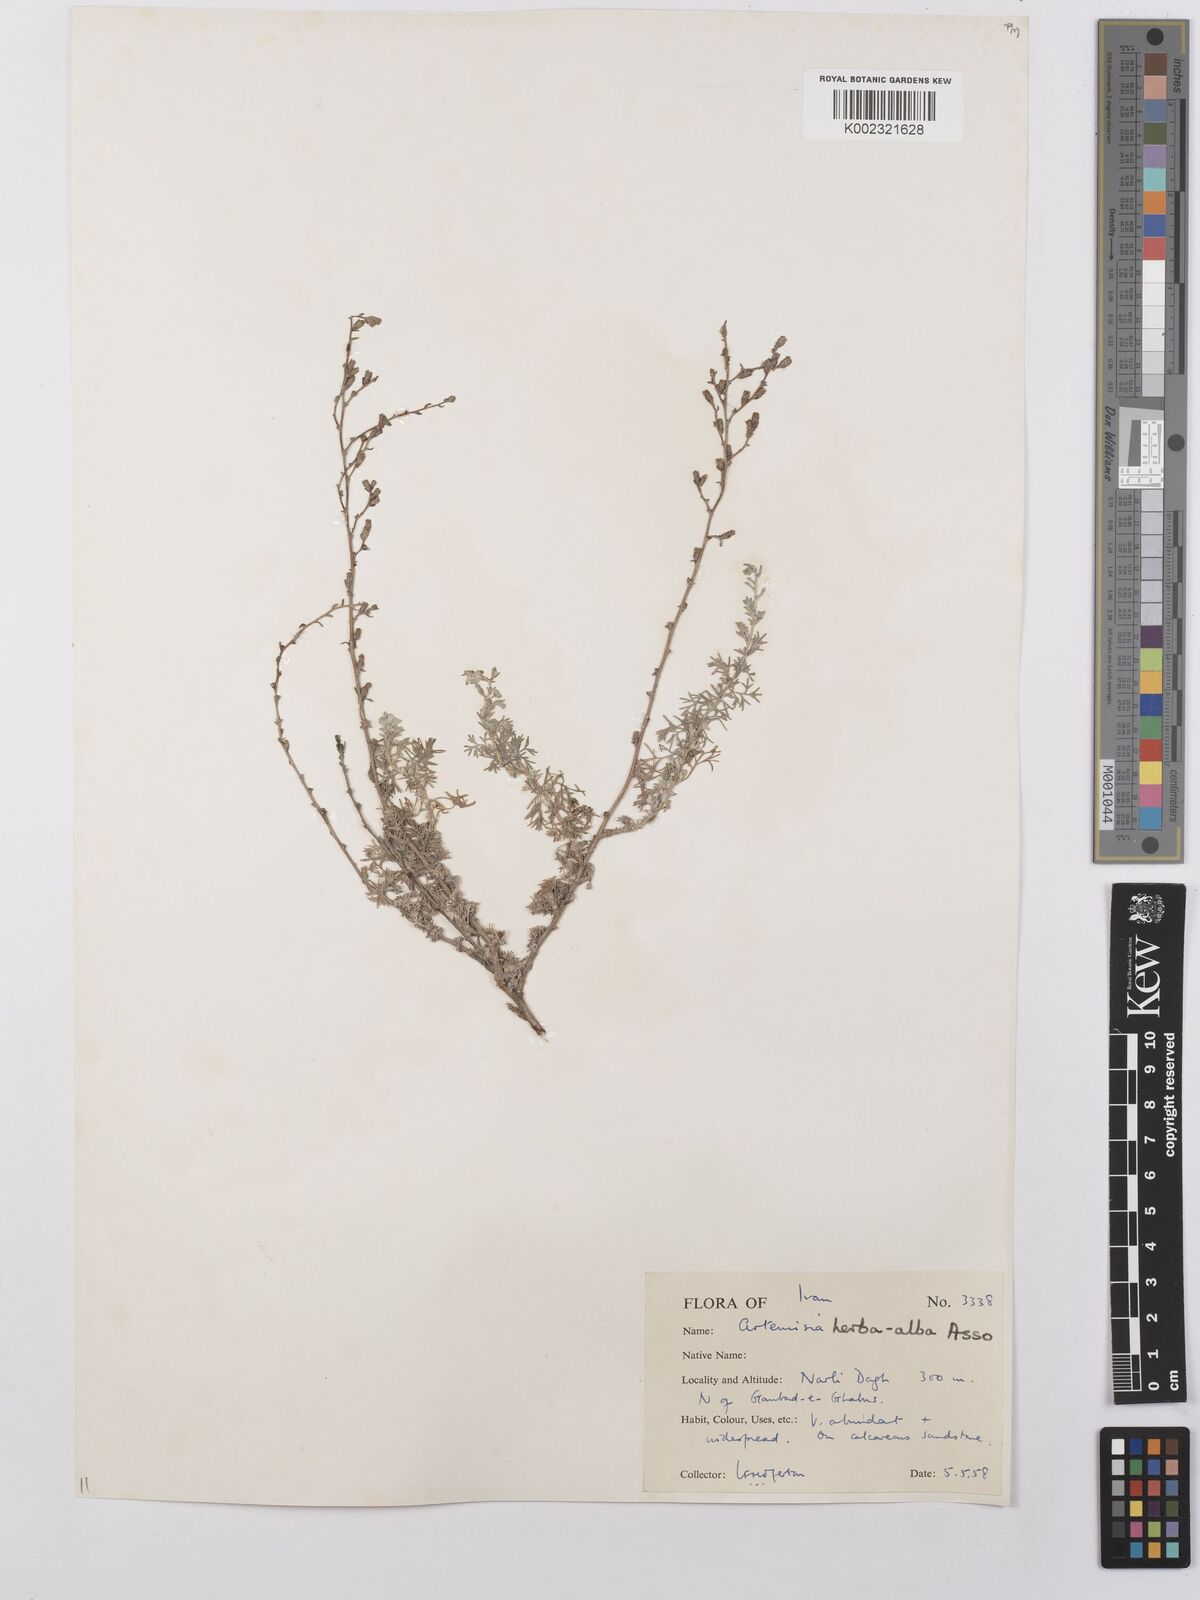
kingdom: Plantae
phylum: Tracheophyta
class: Magnoliopsida
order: Asterales
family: Asteraceae
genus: Artemisia
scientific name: Artemisia herba-alba
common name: White wormwood
